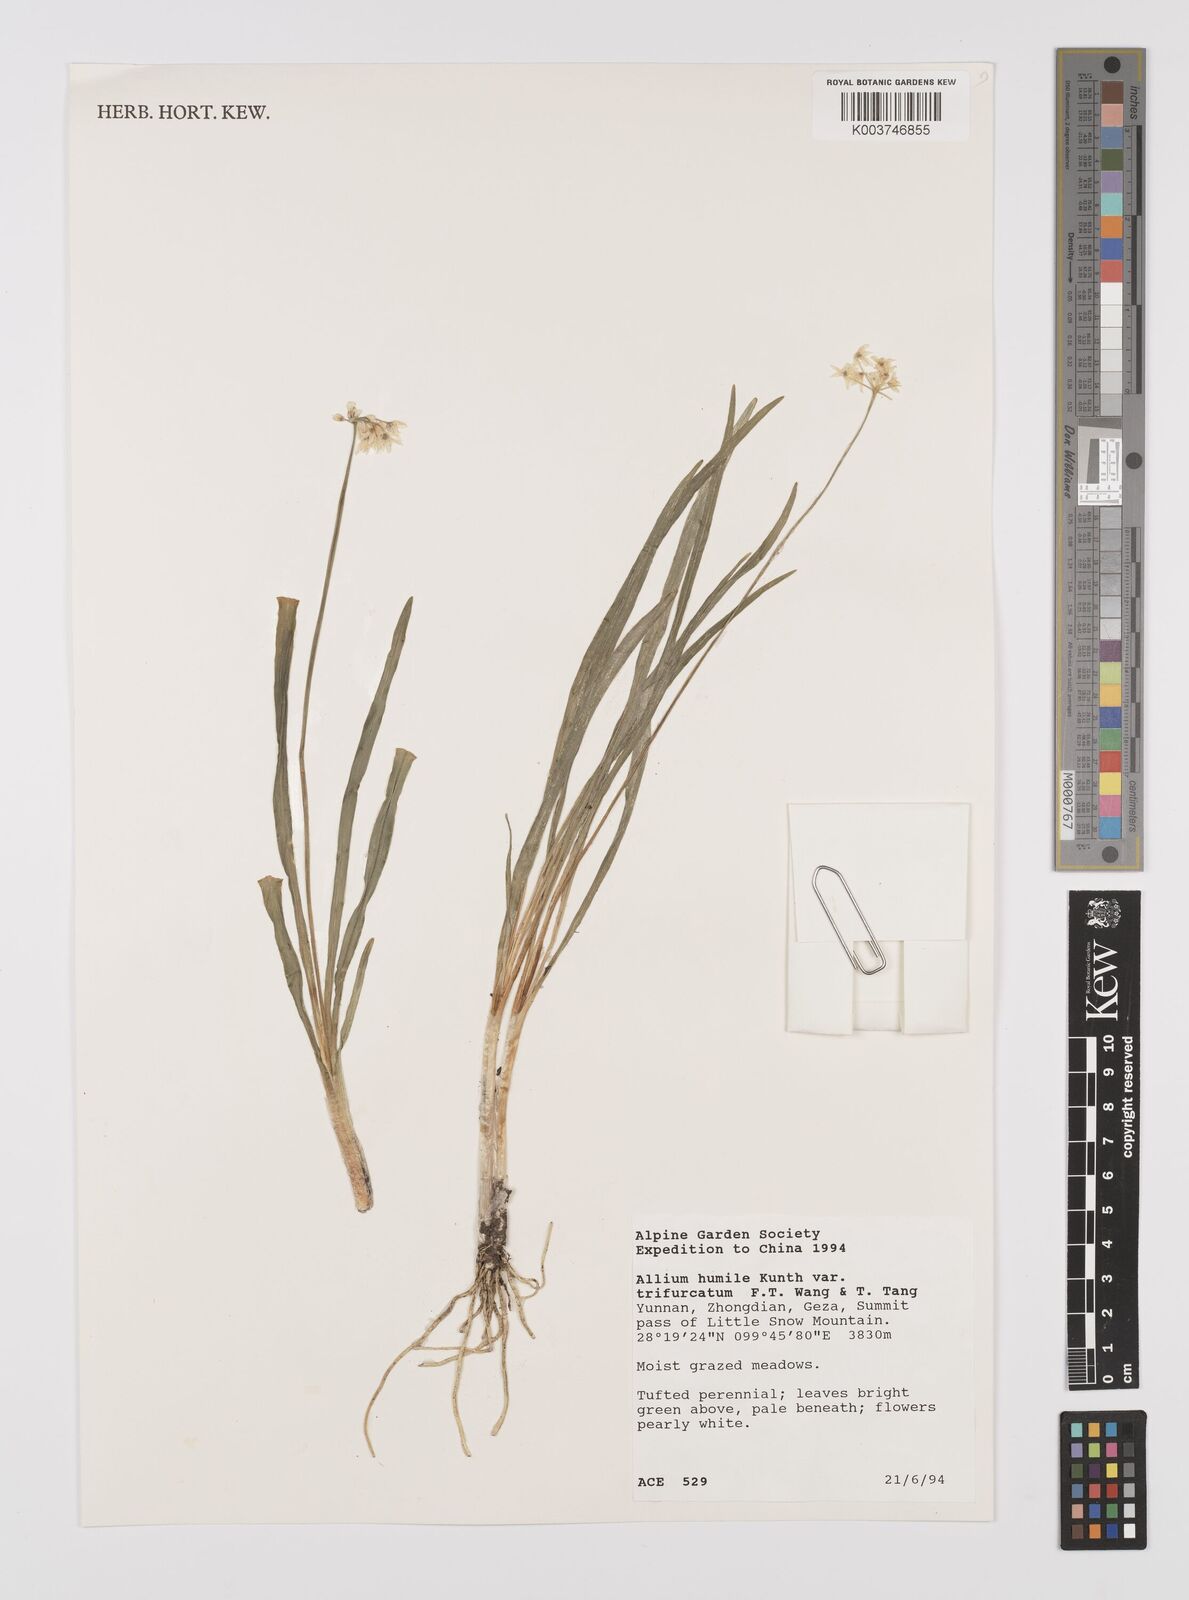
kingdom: Plantae
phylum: Tracheophyta
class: Liliopsida
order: Asparagales
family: Amaryllidaceae
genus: Allium
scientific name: Allium trifurcatum
